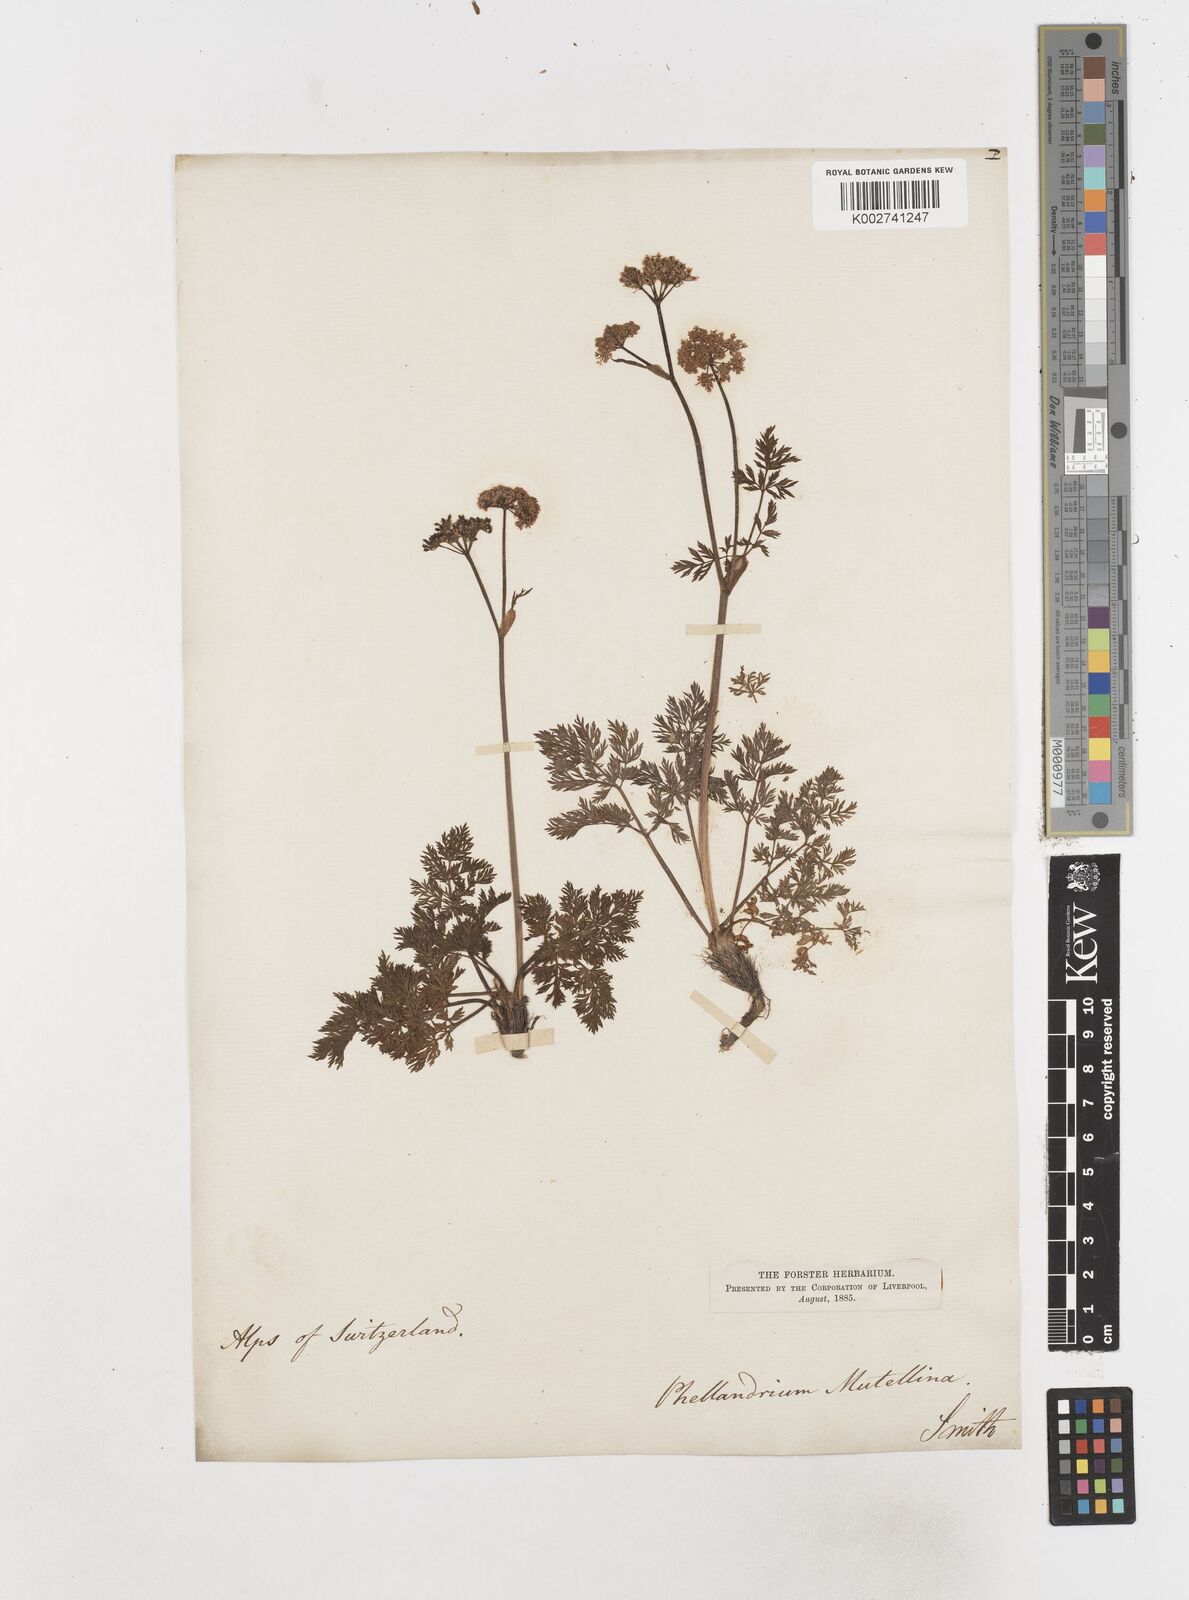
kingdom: Plantae
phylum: Tracheophyta
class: Magnoliopsida
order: Apiales
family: Apiaceae
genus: Mutellina
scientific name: Mutellina adonidifolia
